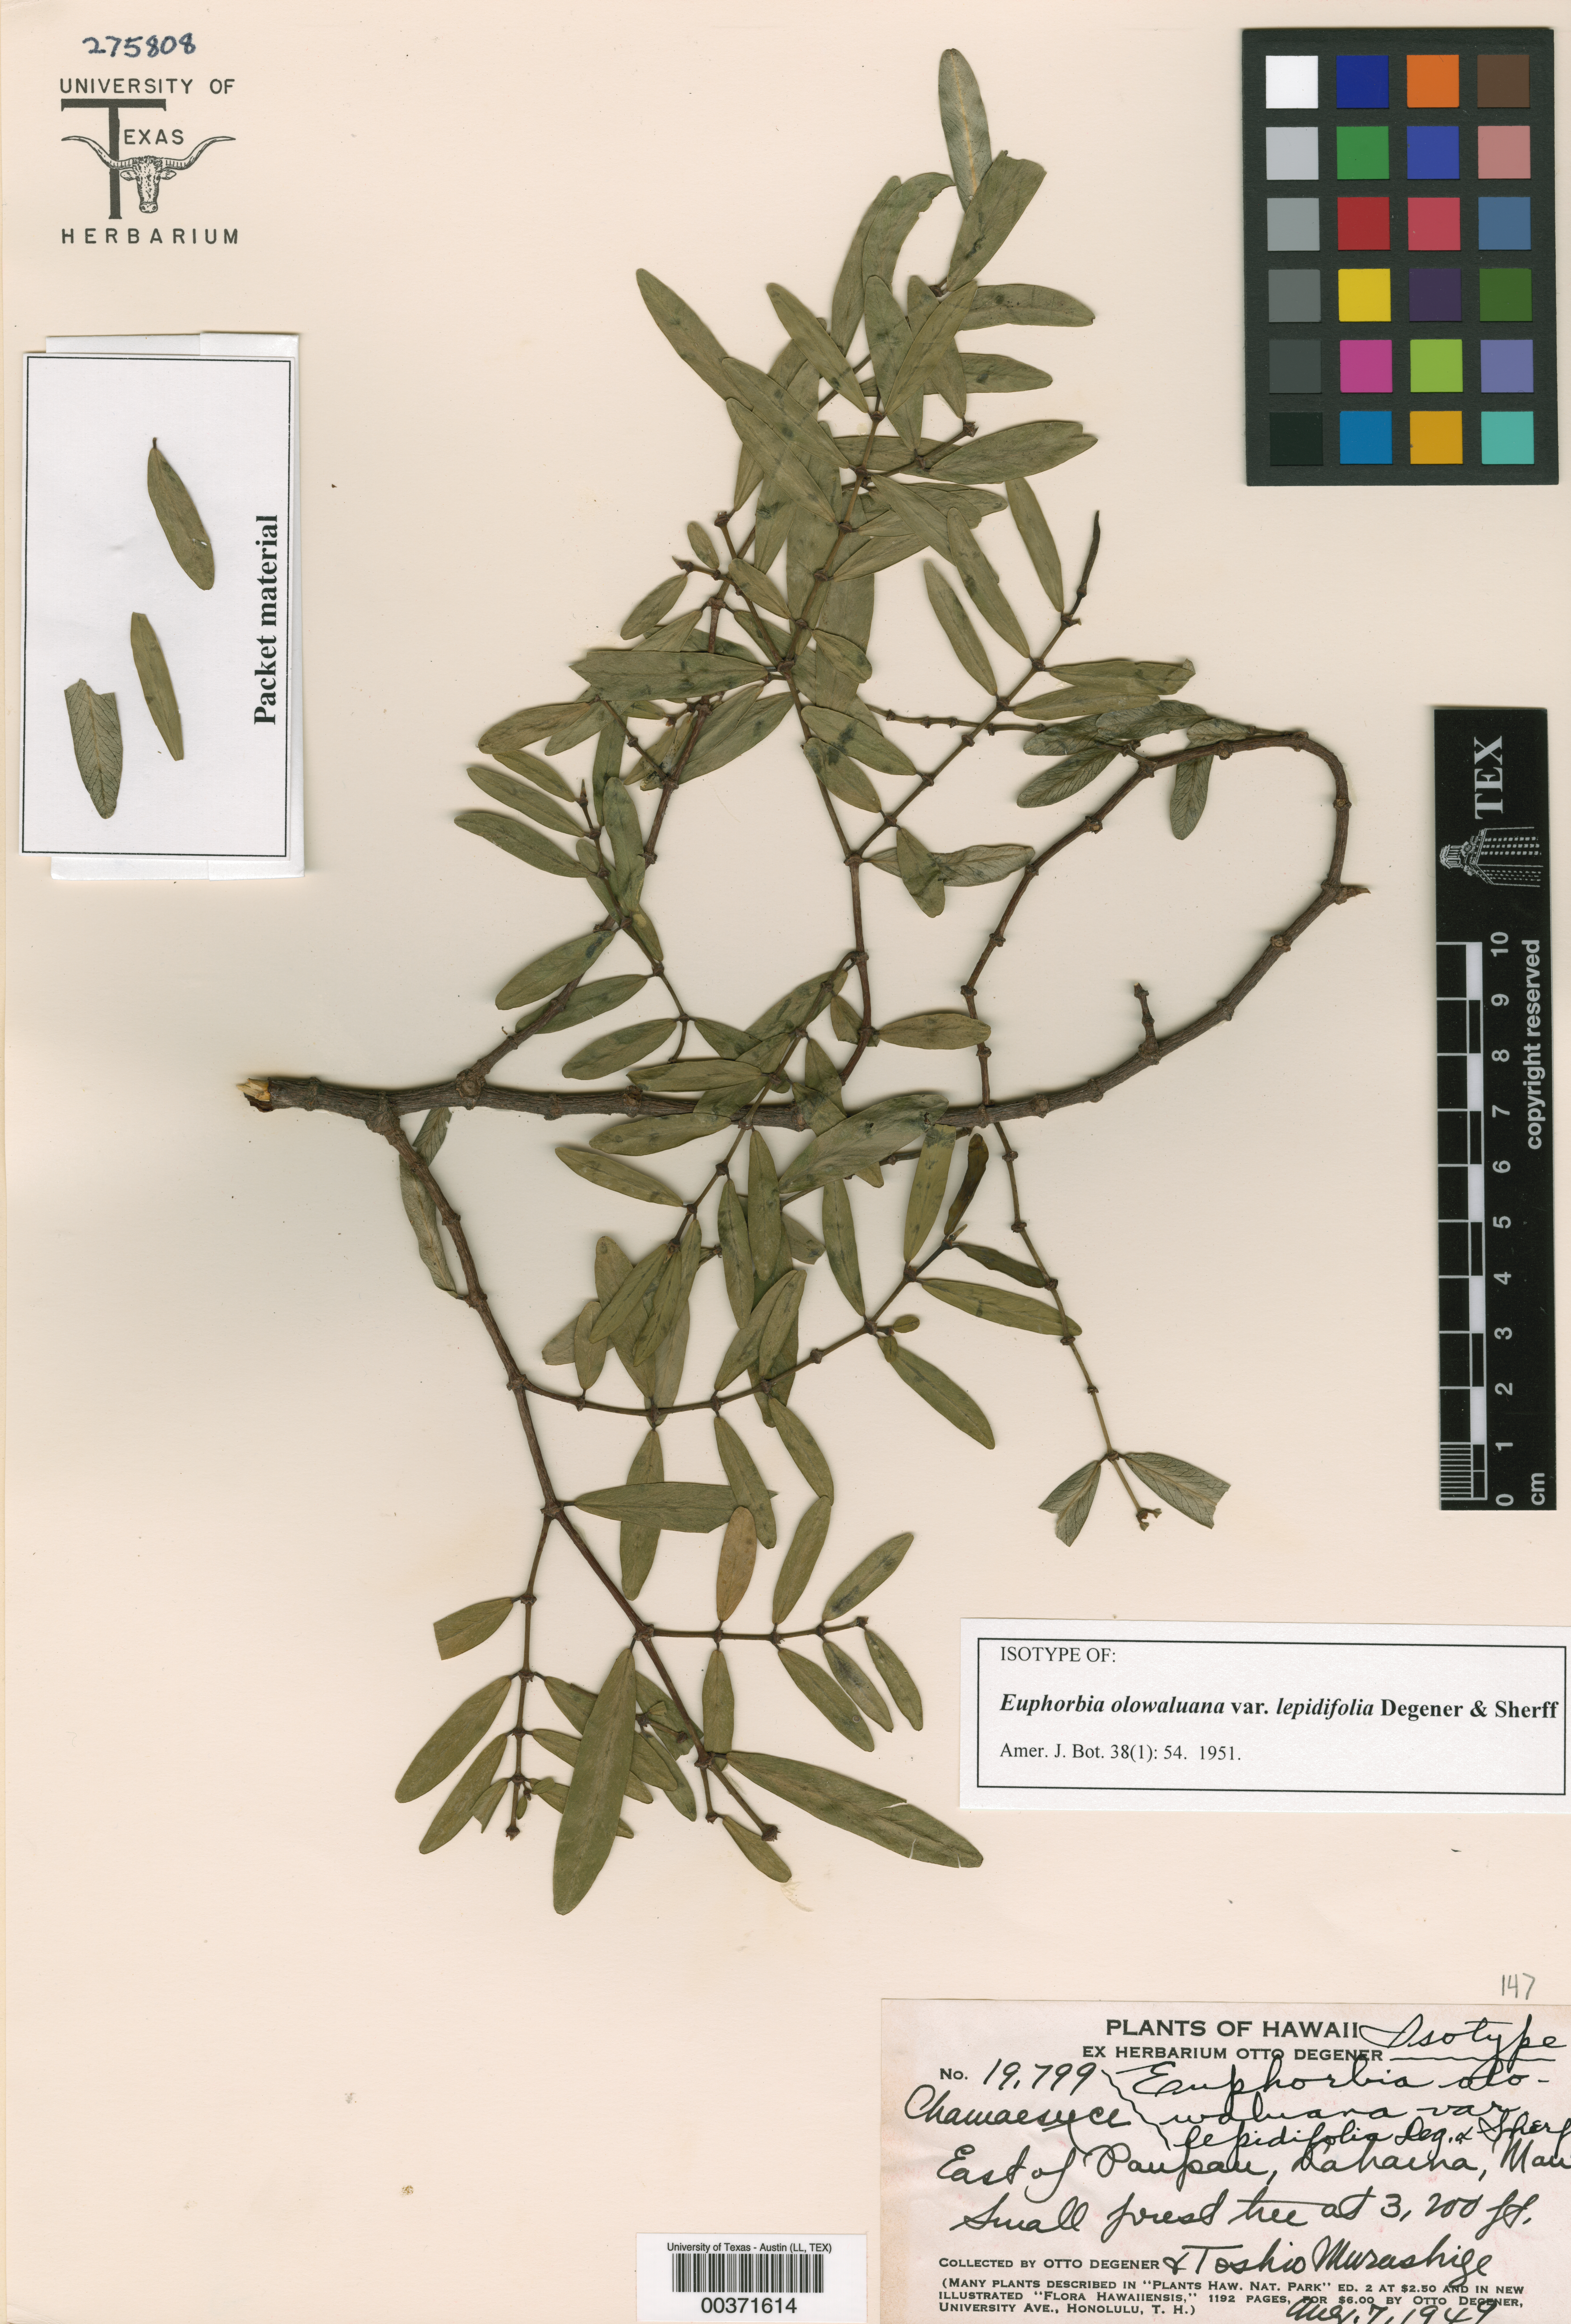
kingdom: Plantae
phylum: Tracheophyta
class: Magnoliopsida
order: Malpighiales
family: Hypericaceae
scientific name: Hypericaceae
